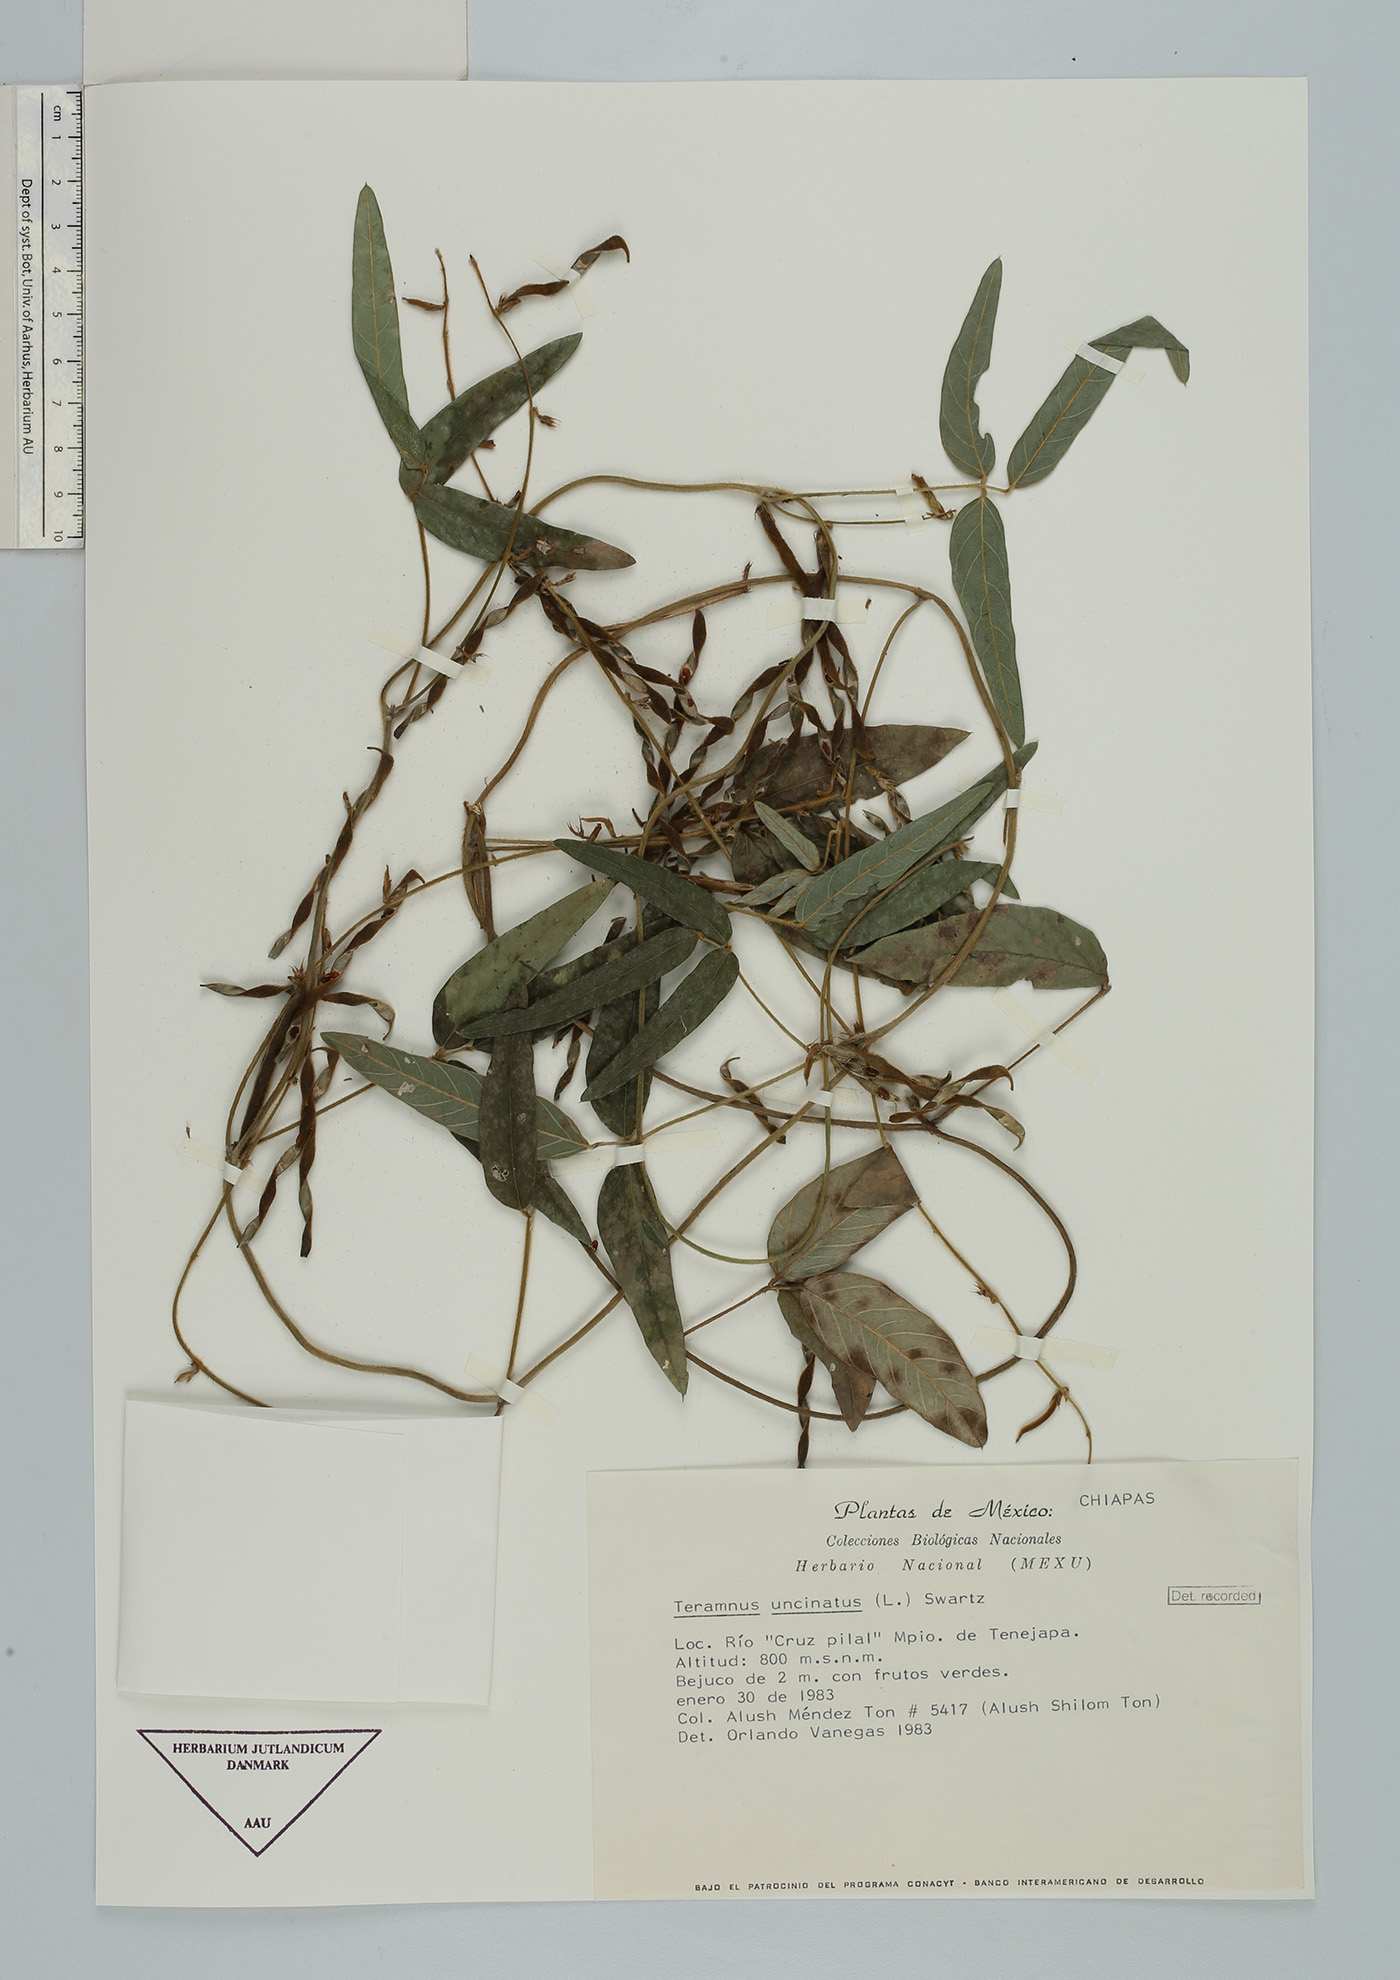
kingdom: Plantae
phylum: Tracheophyta
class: Magnoliopsida
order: Fabales
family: Fabaceae
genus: Teramnus
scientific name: Teramnus uncinatus
